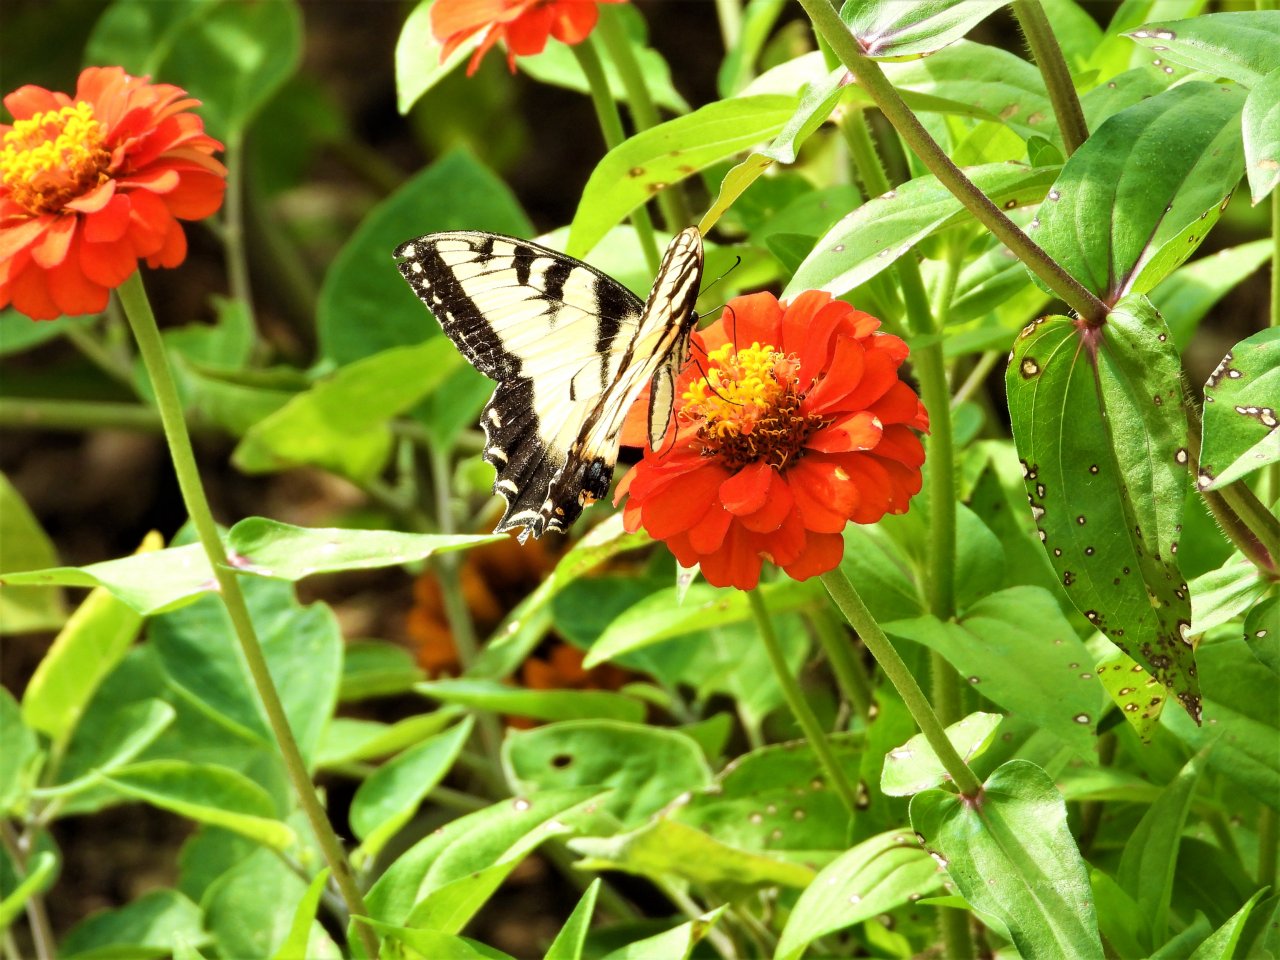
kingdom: Animalia
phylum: Arthropoda
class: Insecta
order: Lepidoptera
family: Papilionidae
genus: Pterourus
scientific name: Pterourus glaucus
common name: Eastern Tiger Swallowtail
